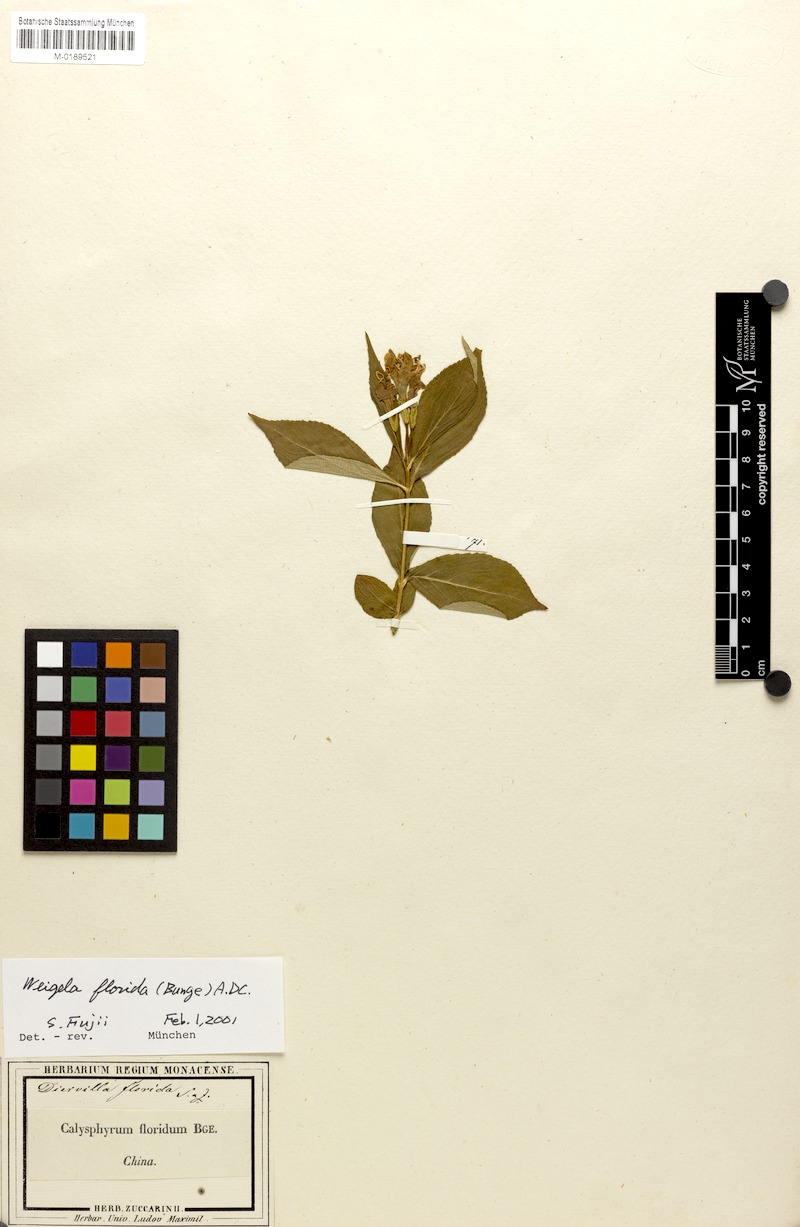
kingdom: Plantae
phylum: Tracheophyta
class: Magnoliopsida
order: Dipsacales
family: Caprifoliaceae
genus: Weigela
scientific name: Weigela florida
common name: Weigelia
